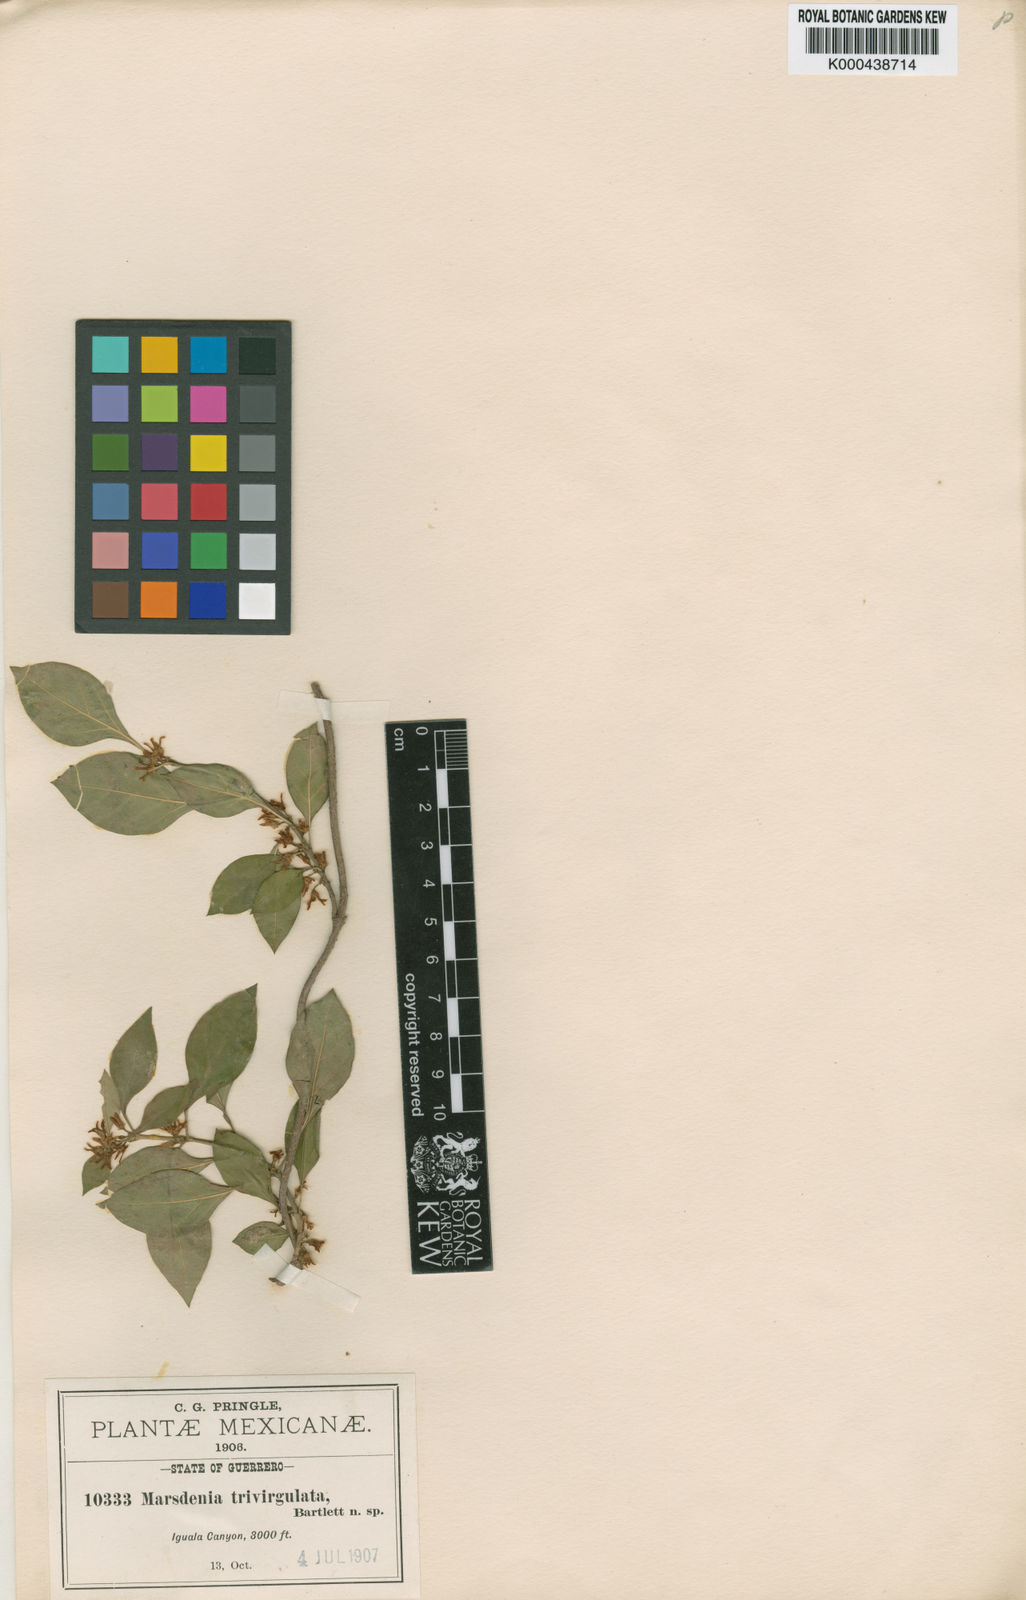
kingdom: Plantae
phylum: Tracheophyta
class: Magnoliopsida
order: Gentianales
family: Apocynaceae
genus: Ruehssia
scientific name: Ruehssia trivirgulata
